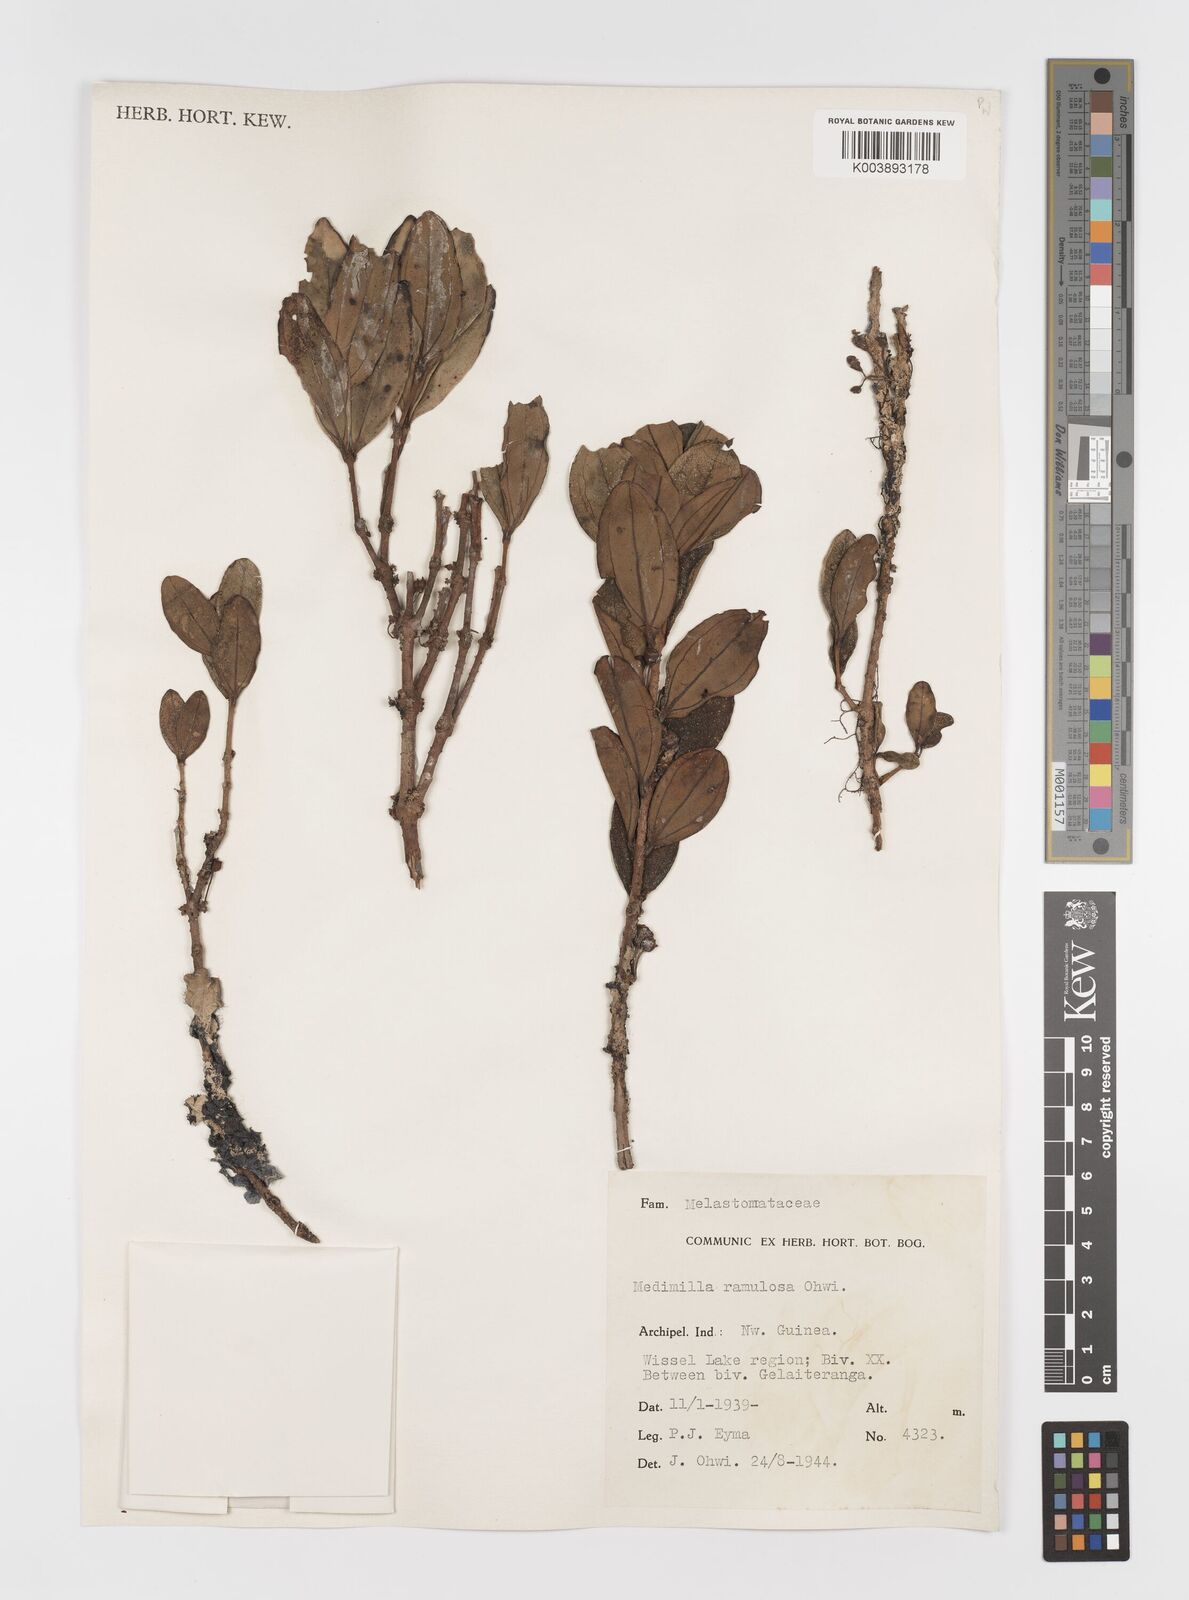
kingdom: Plantae
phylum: Tracheophyta
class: Magnoliopsida
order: Myrtales
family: Melastomataceae
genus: Medinilla
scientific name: Medinilla
